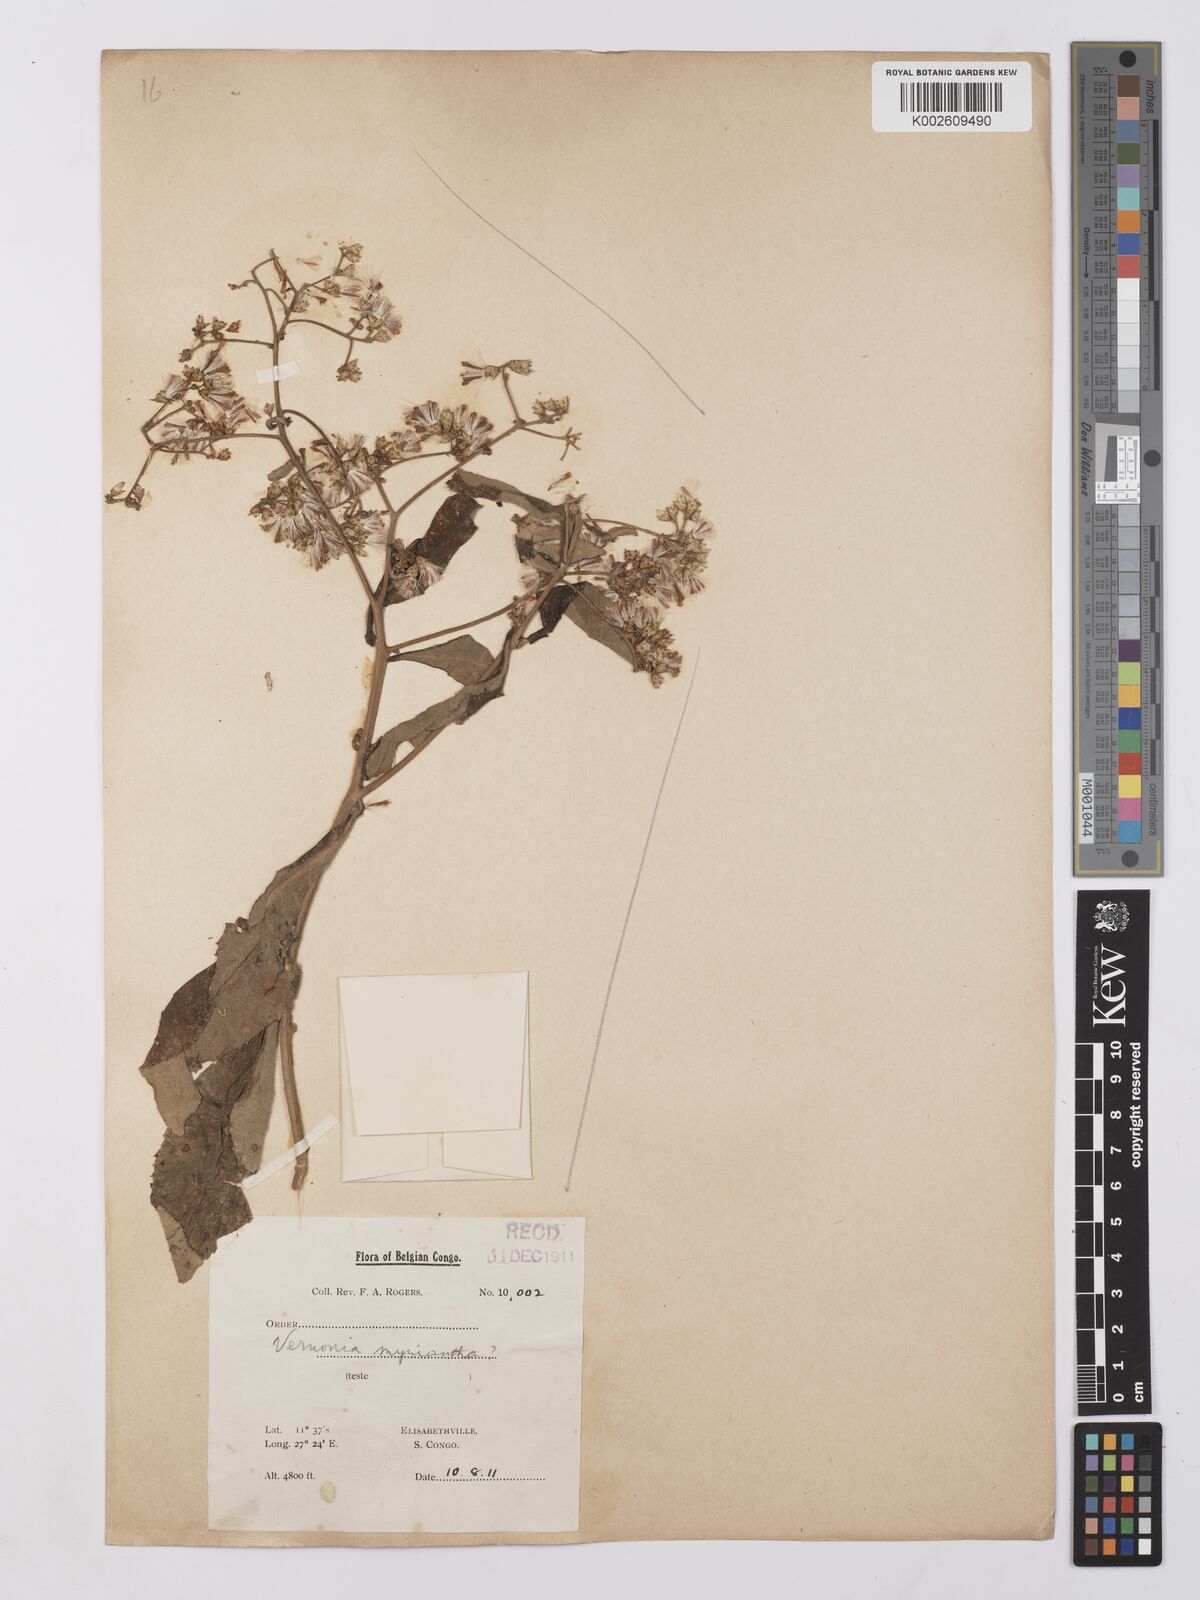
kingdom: Plantae
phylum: Tracheophyta
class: Magnoliopsida
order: Asterales
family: Asteraceae
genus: Vernonia
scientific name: Vernonia
